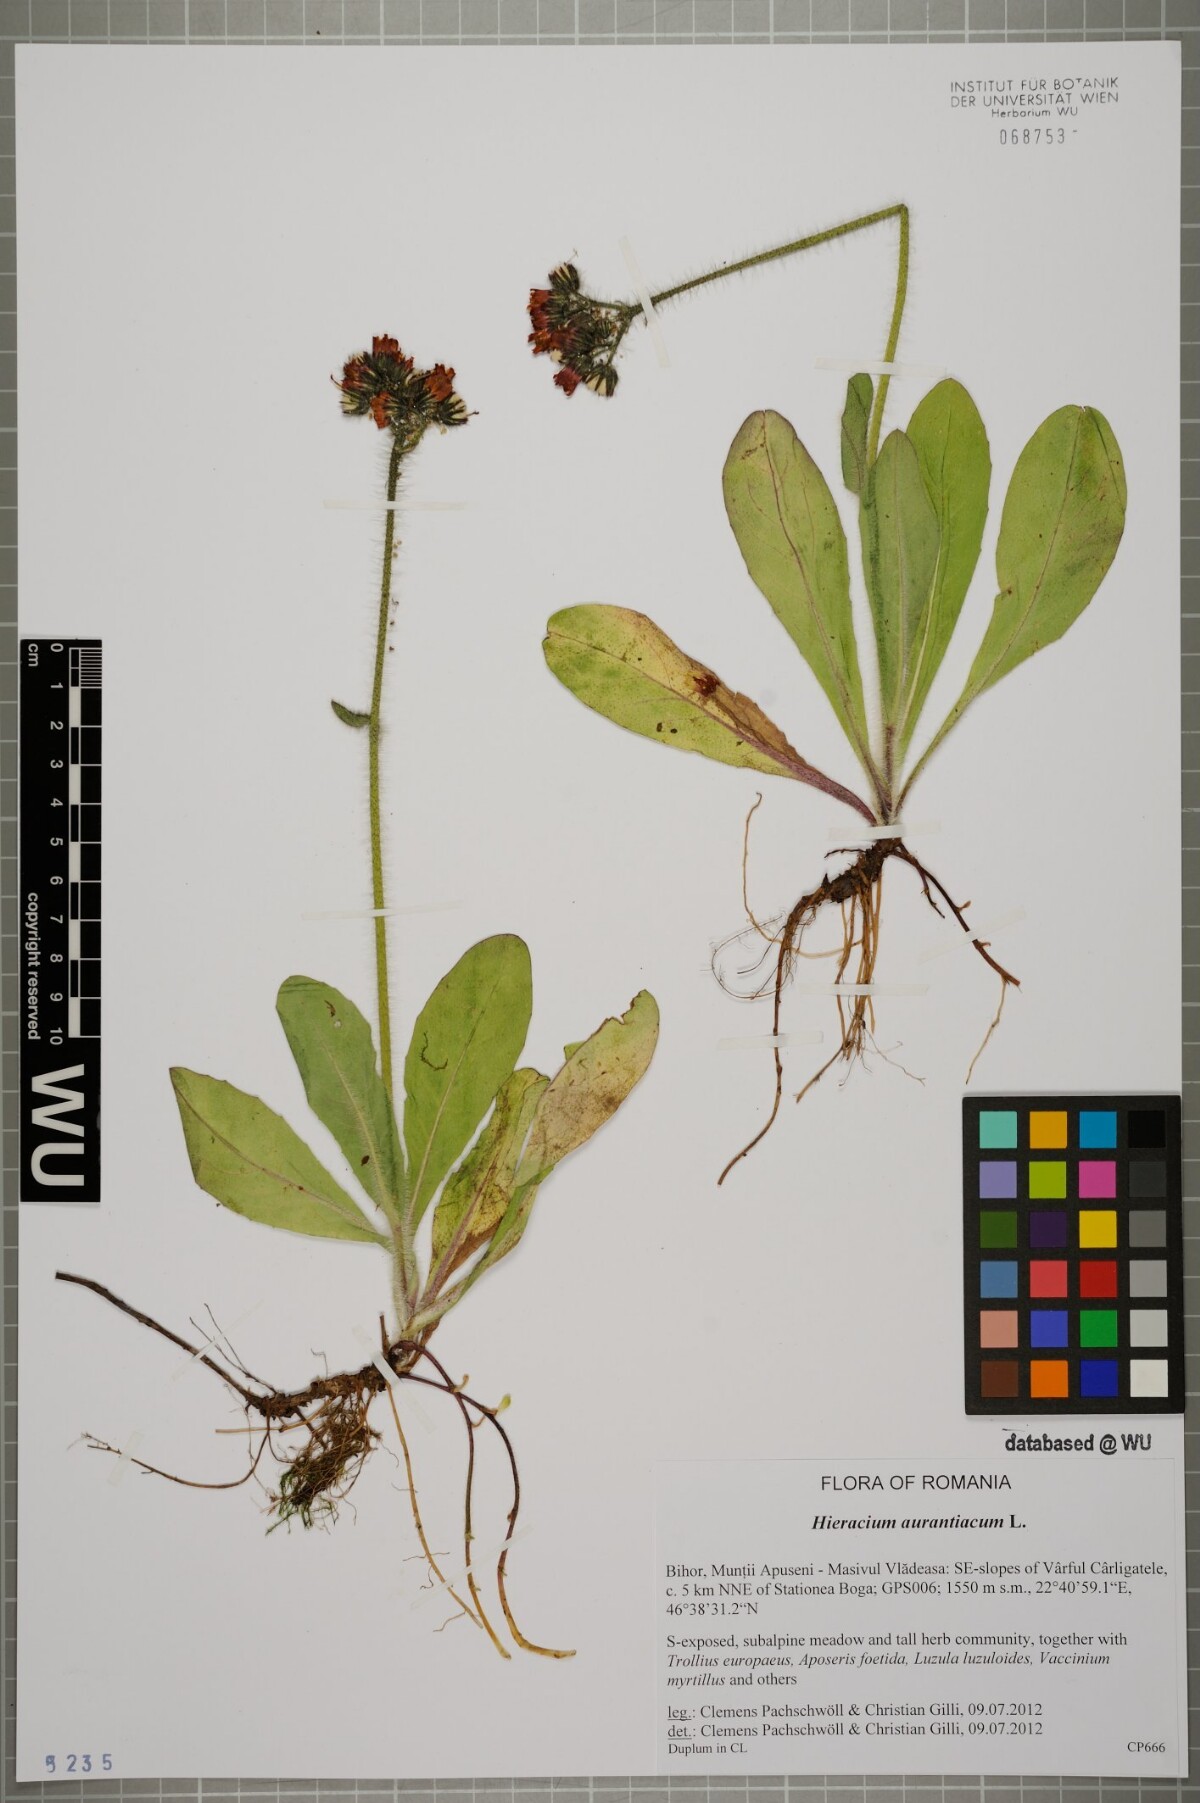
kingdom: Plantae
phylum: Tracheophyta
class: Magnoliopsida
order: Asterales
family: Asteraceae
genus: Pilosella
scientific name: Pilosella aurantiaca
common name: Fox-and-cubs
